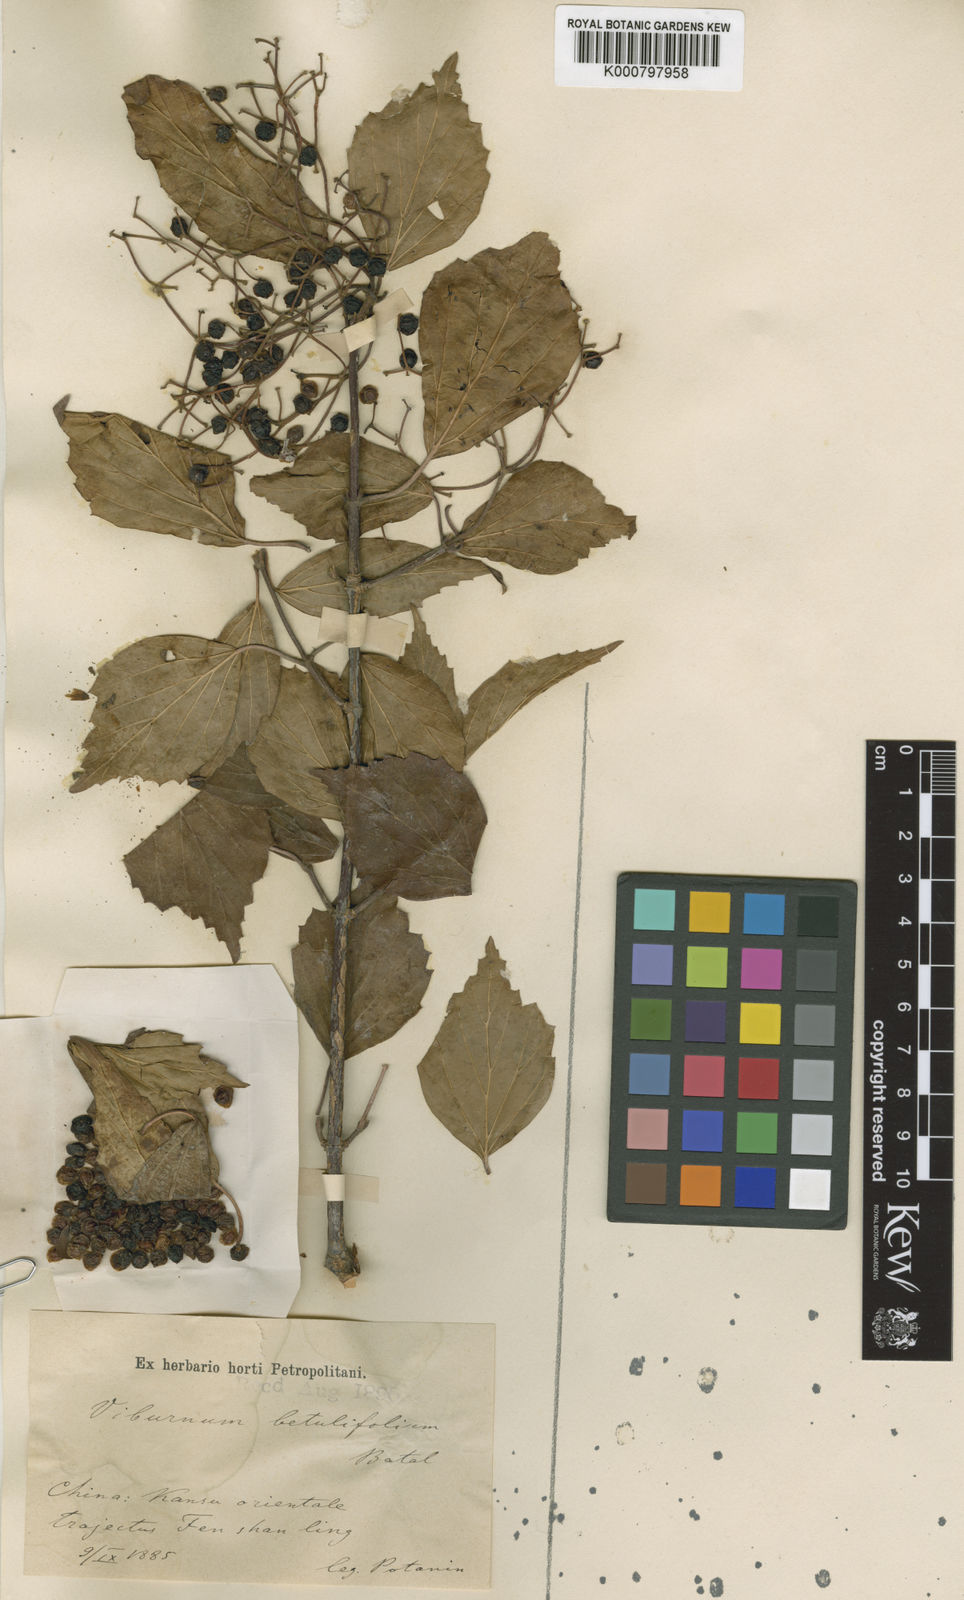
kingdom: Plantae
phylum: Tracheophyta
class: Magnoliopsida
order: Dipsacales
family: Viburnaceae
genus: Viburnum
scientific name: Viburnum betulifolium
